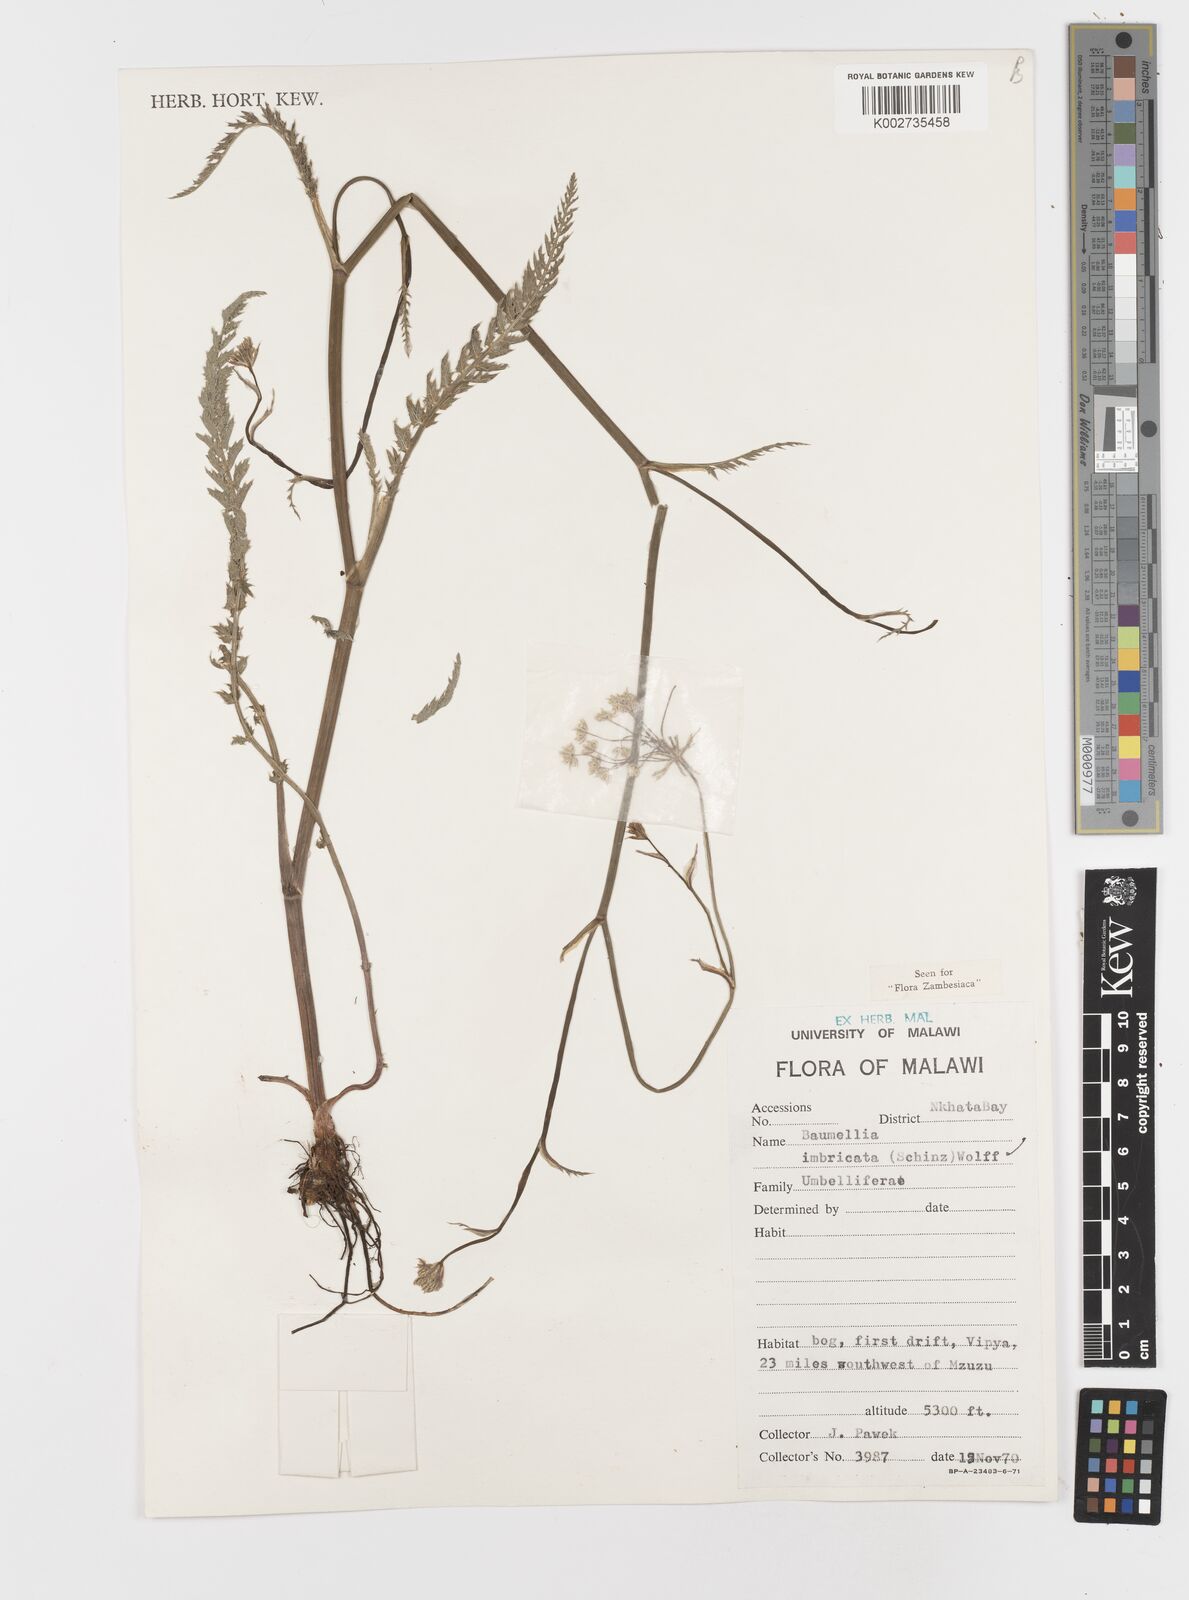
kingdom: Plantae
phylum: Tracheophyta
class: Magnoliopsida
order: Apiales
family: Apiaceae
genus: Berula
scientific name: Berula imbricata
